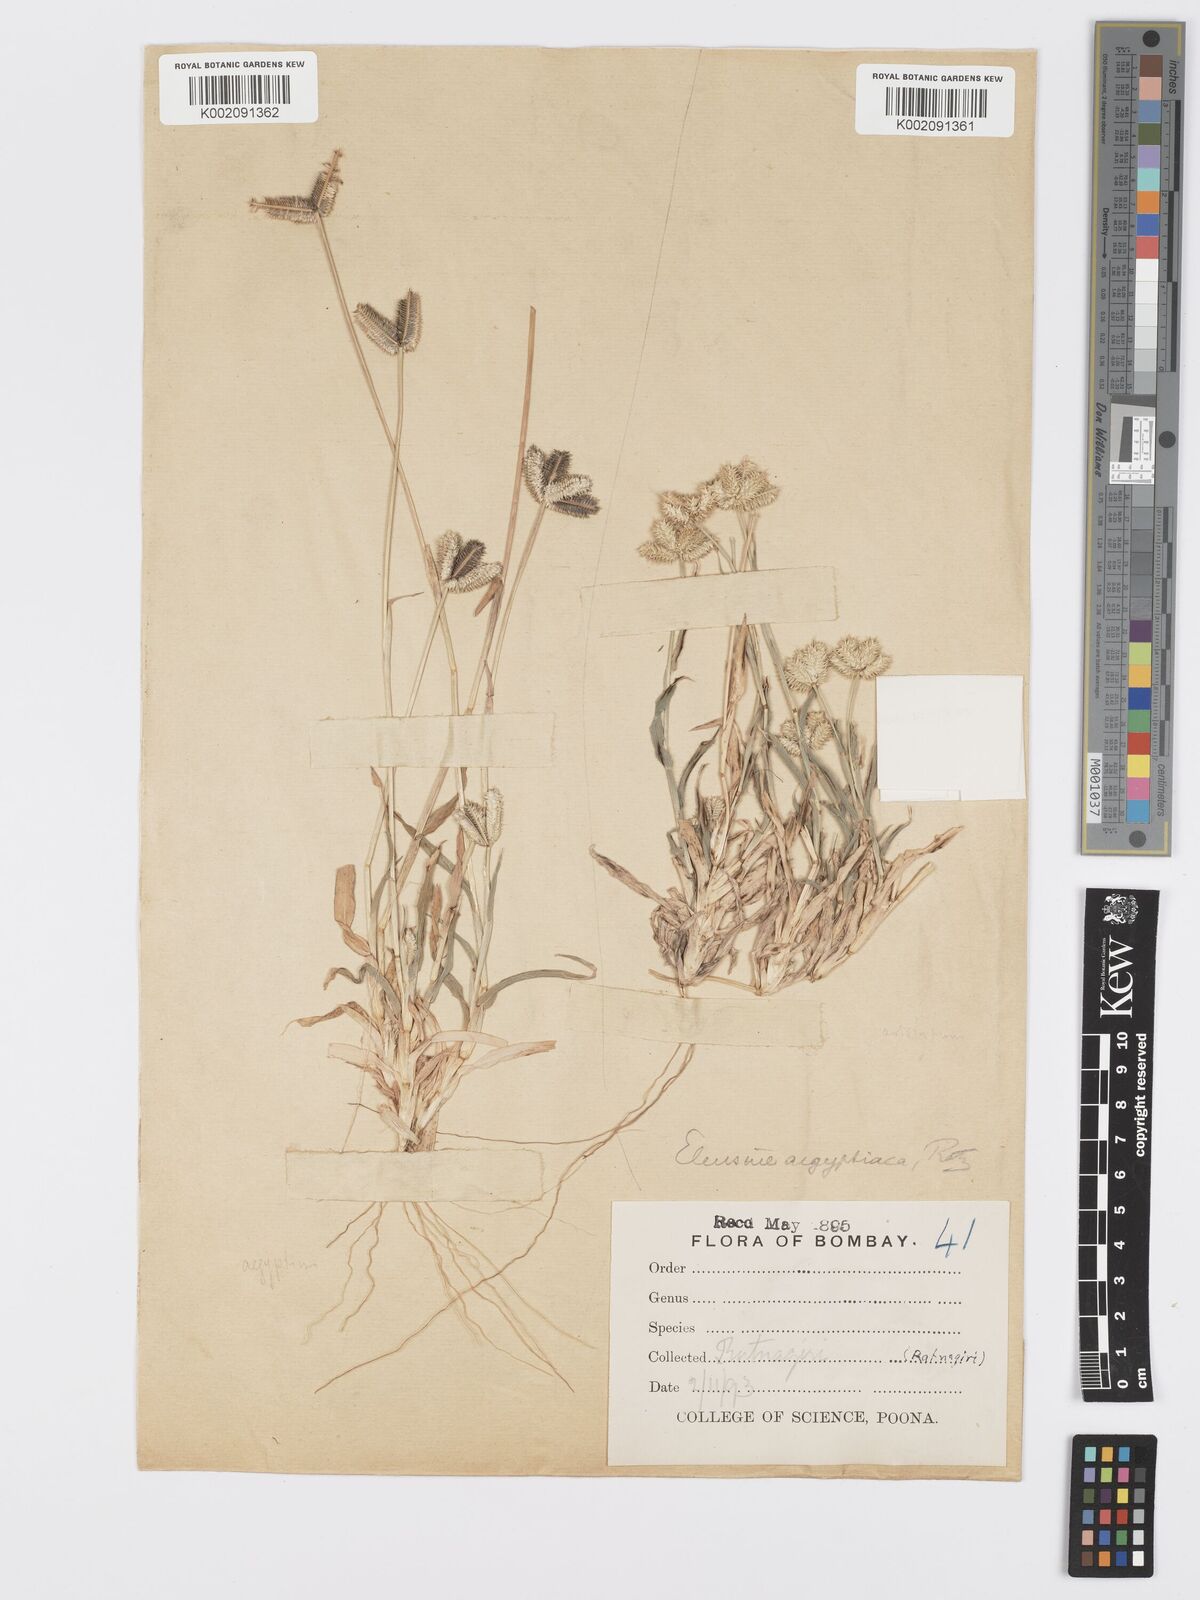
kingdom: Plantae
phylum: Tracheophyta
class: Liliopsida
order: Poales
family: Poaceae
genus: Dactyloctenium
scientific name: Dactyloctenium aristatum
